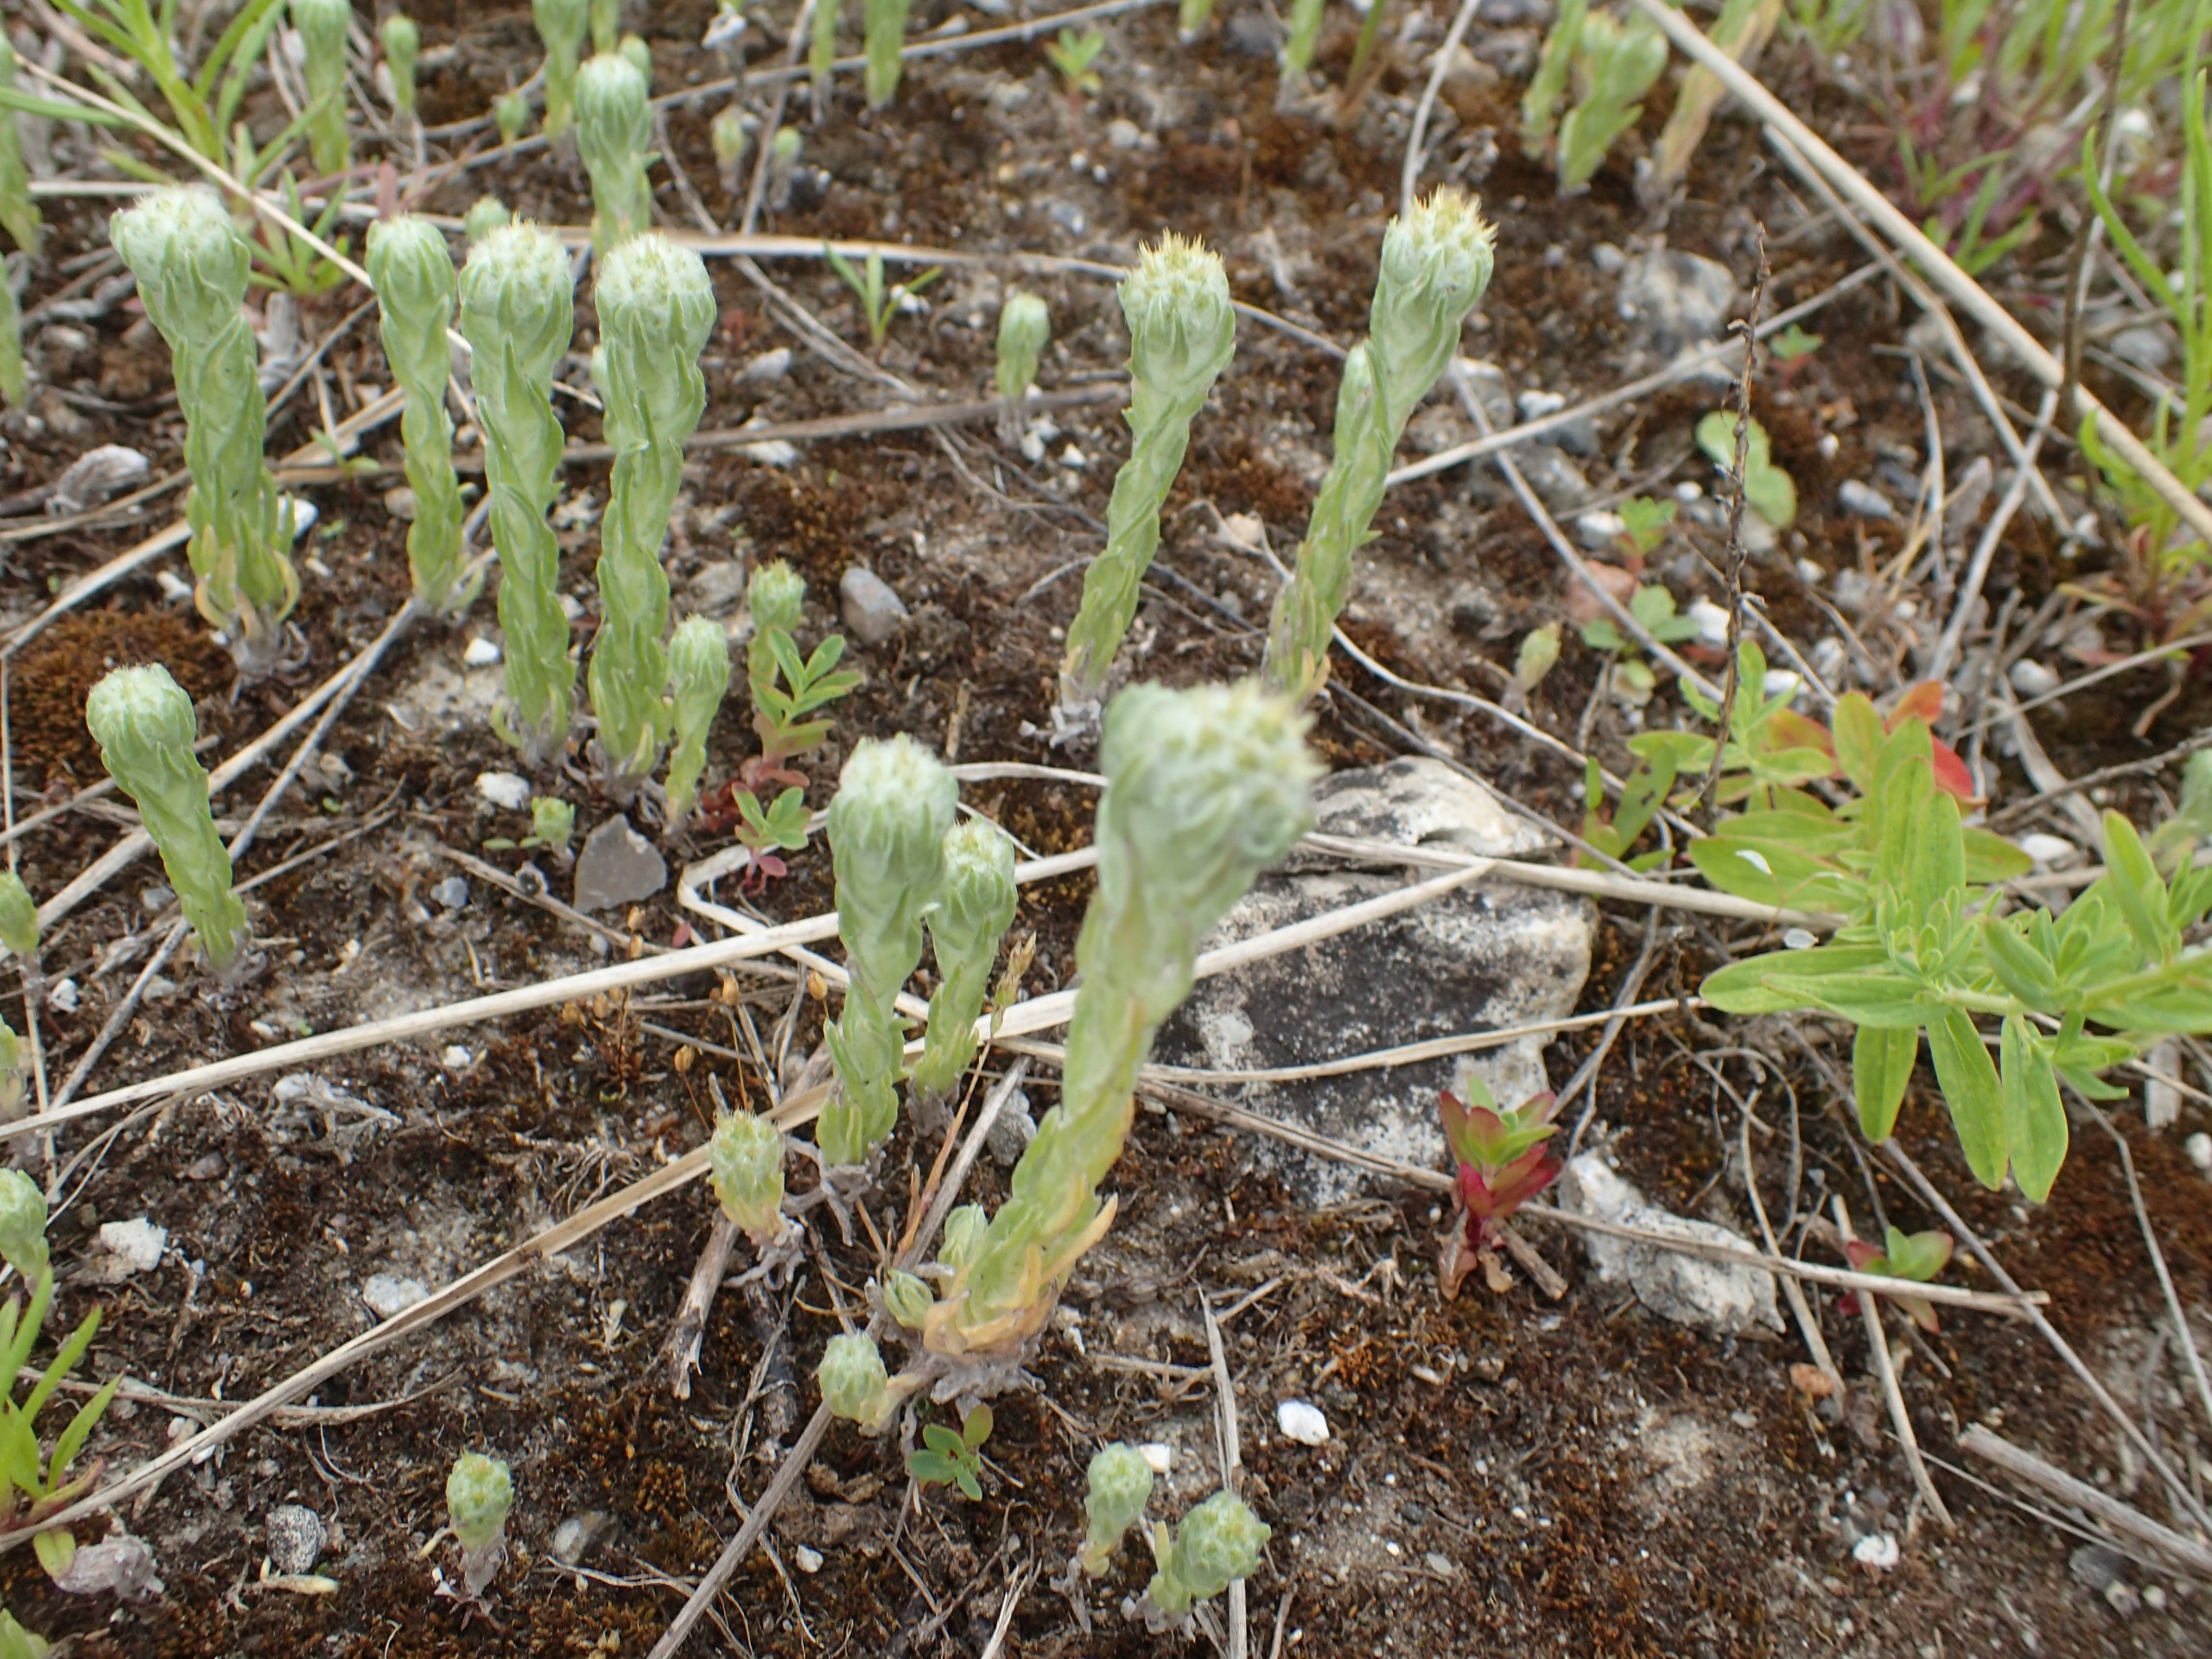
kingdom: Plantae
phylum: Tracheophyta
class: Magnoliopsida
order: Asterales
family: Asteraceae
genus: Filago
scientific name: Filago germanica
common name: Kugle-museurt
